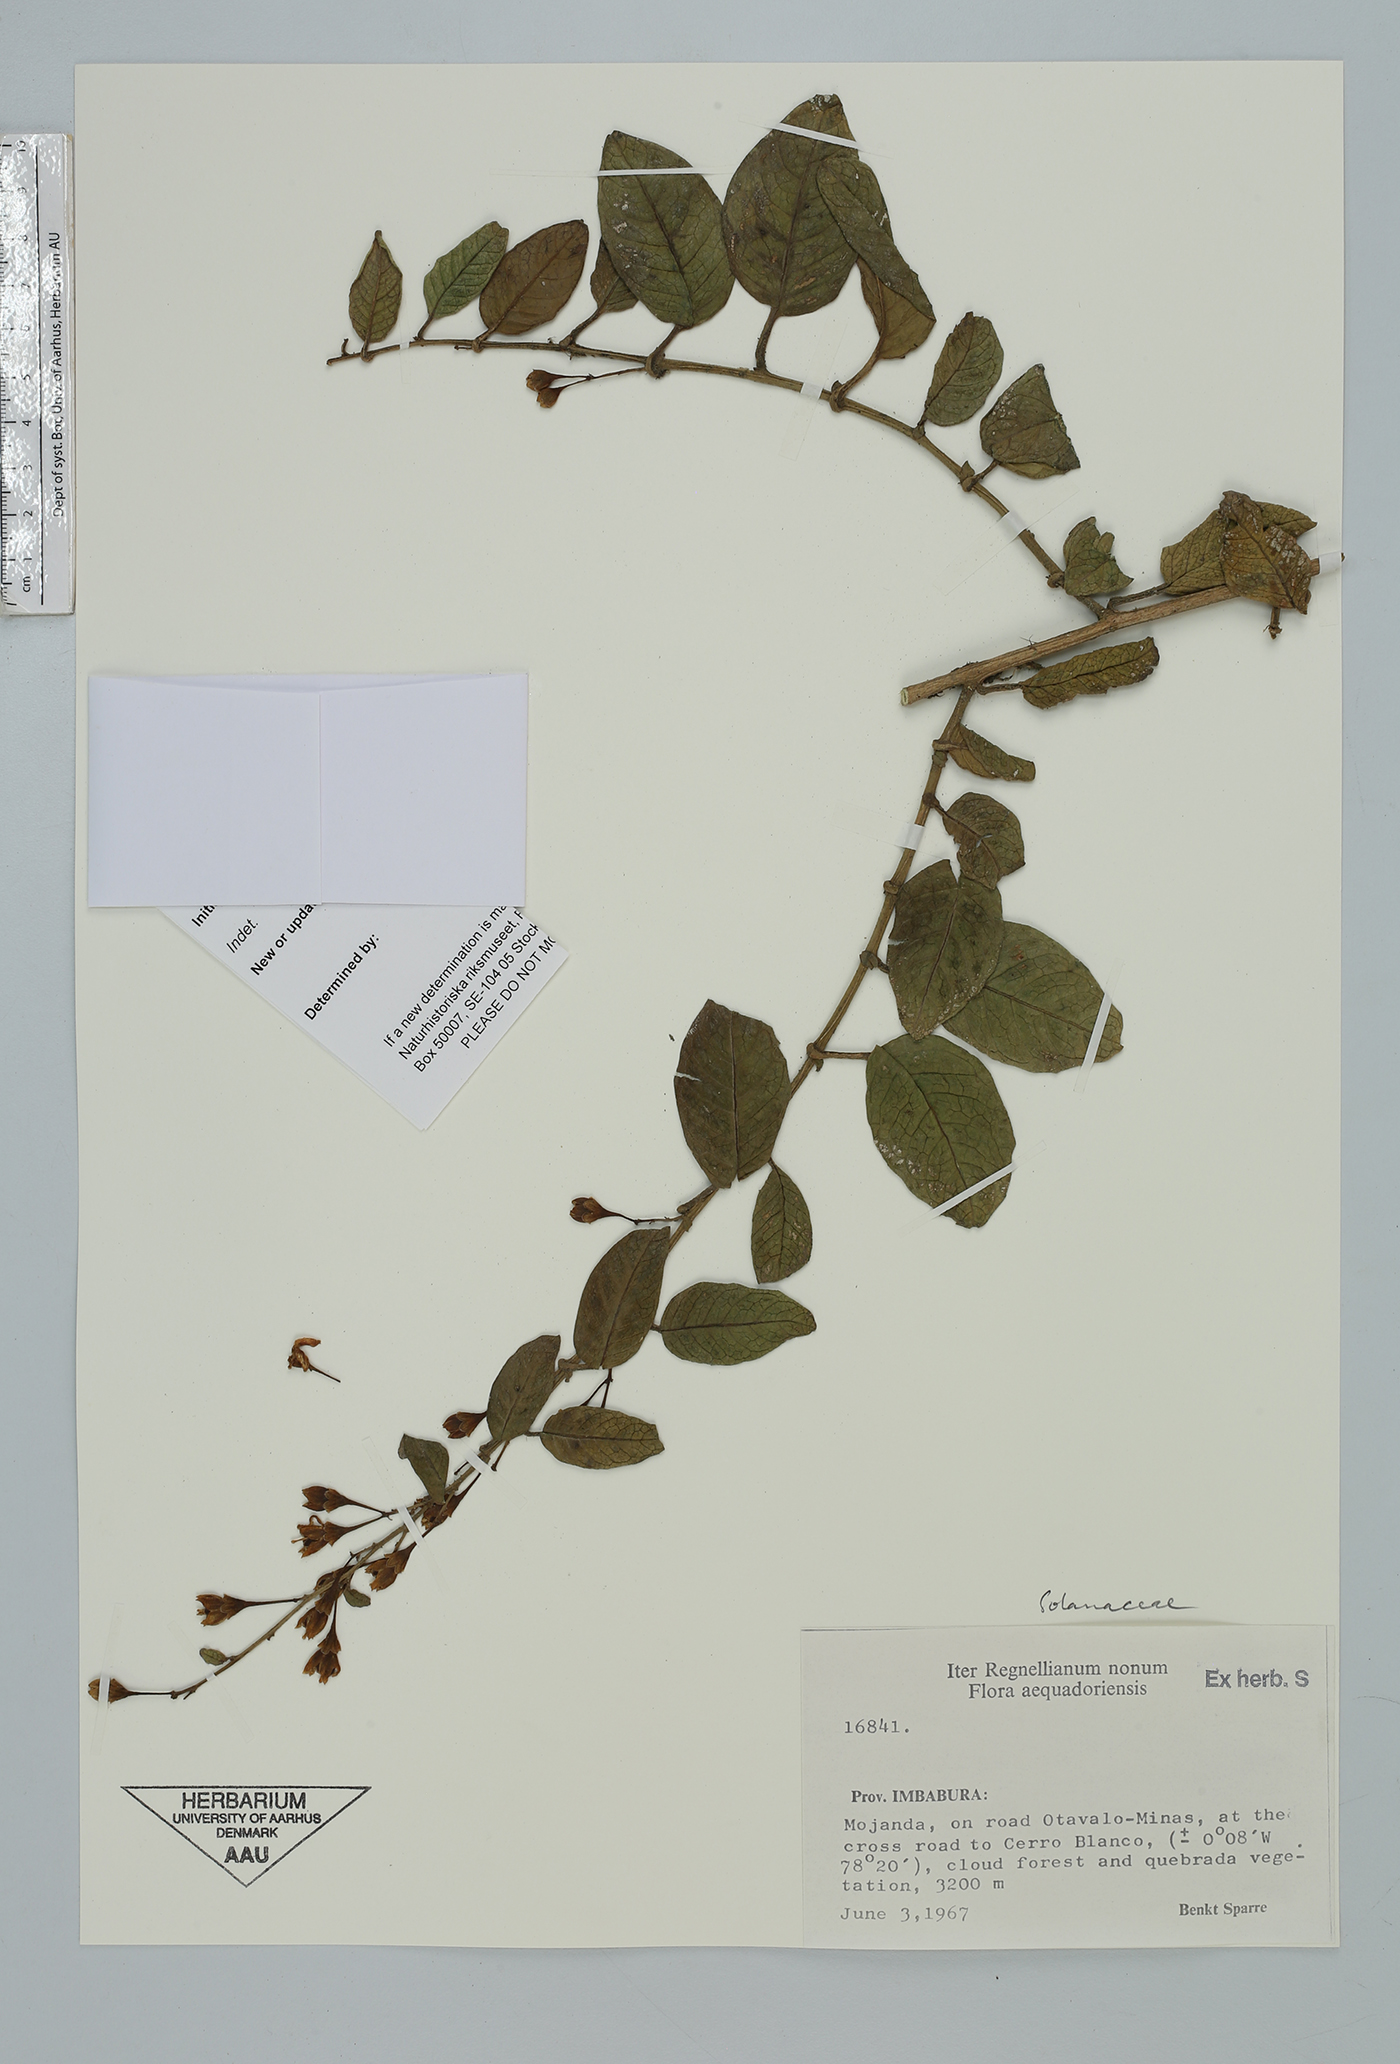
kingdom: Plantae
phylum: Tracheophyta
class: Magnoliopsida
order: Solanales
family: Solanaceae
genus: Solanum
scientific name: Solanum
